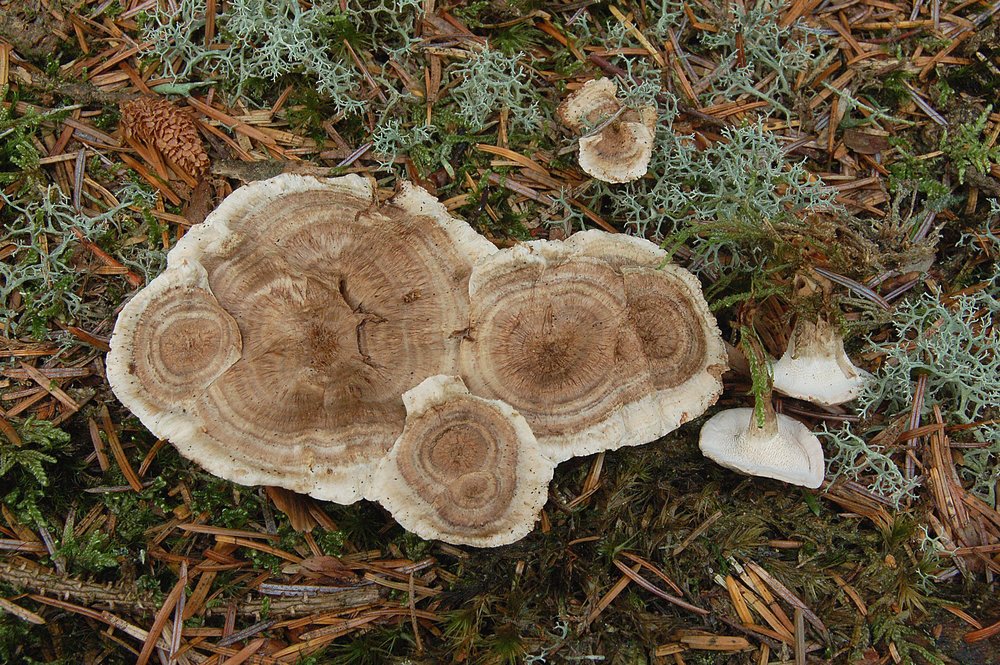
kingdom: Fungi
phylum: Basidiomycota
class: Agaricomycetes
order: Thelephorales
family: Thelephoraceae
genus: Phellodon
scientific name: Phellodon tomentosus
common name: tragtformet duftpigsvamp
